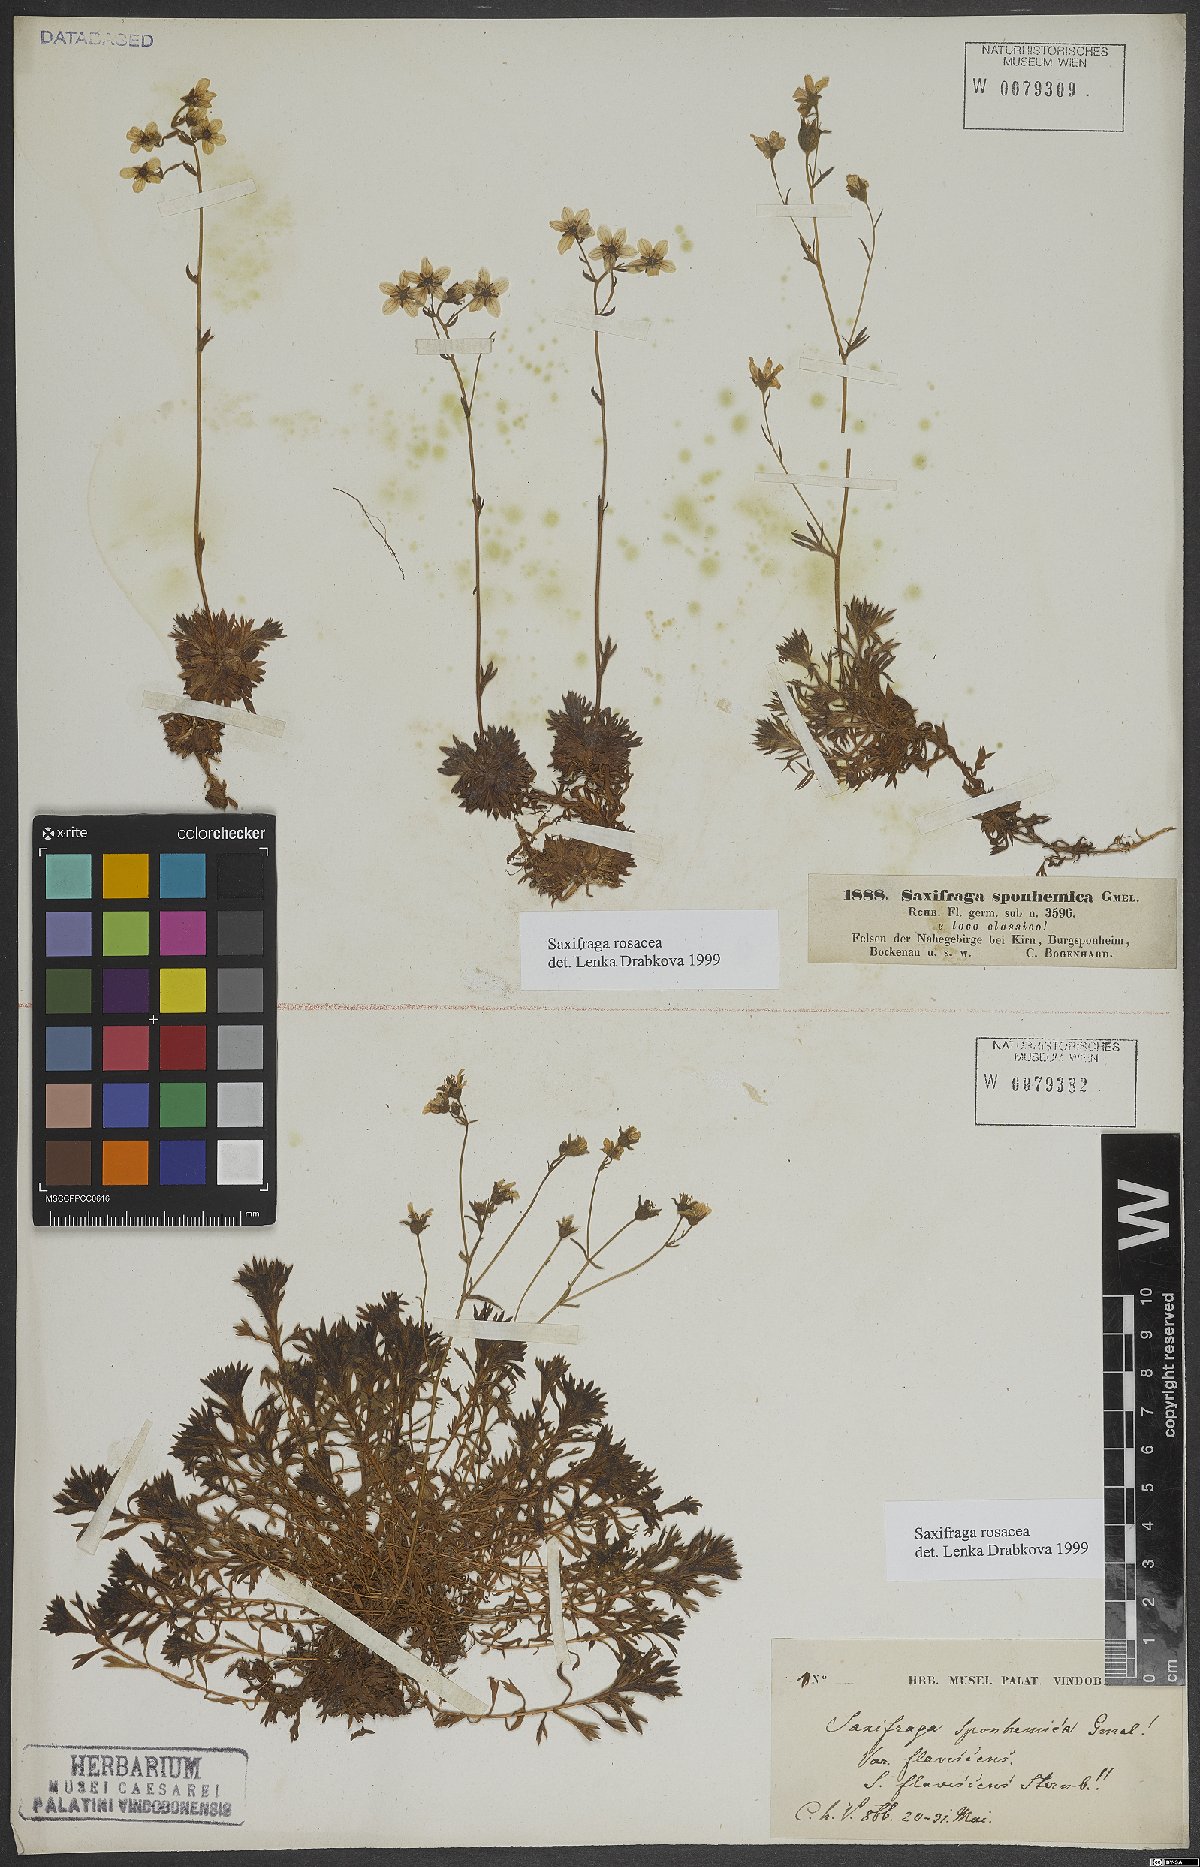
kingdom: Plantae
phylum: Tracheophyta
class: Magnoliopsida
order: Saxifragales
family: Saxifragaceae
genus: Saxifraga
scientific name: Saxifraga rosacea
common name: Irish saxifrage
